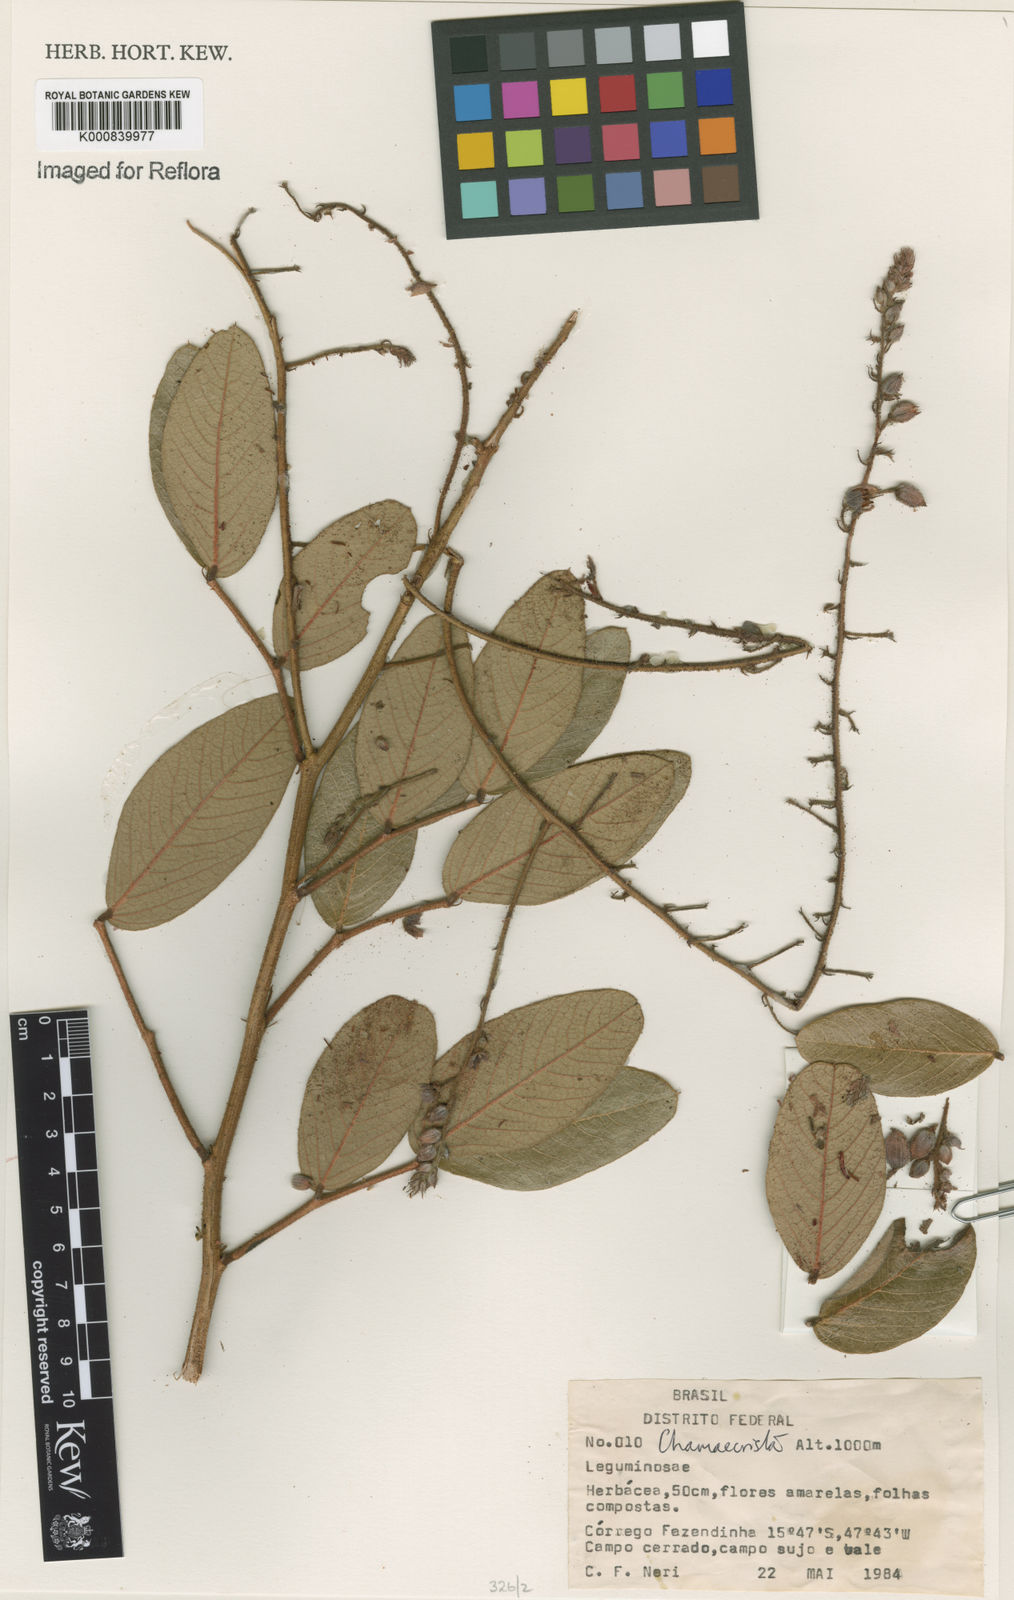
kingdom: Plantae
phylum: Tracheophyta
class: Magnoliopsida
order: Fabales
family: Fabaceae
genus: Chamaecrista
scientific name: Chamaecrista setosa
